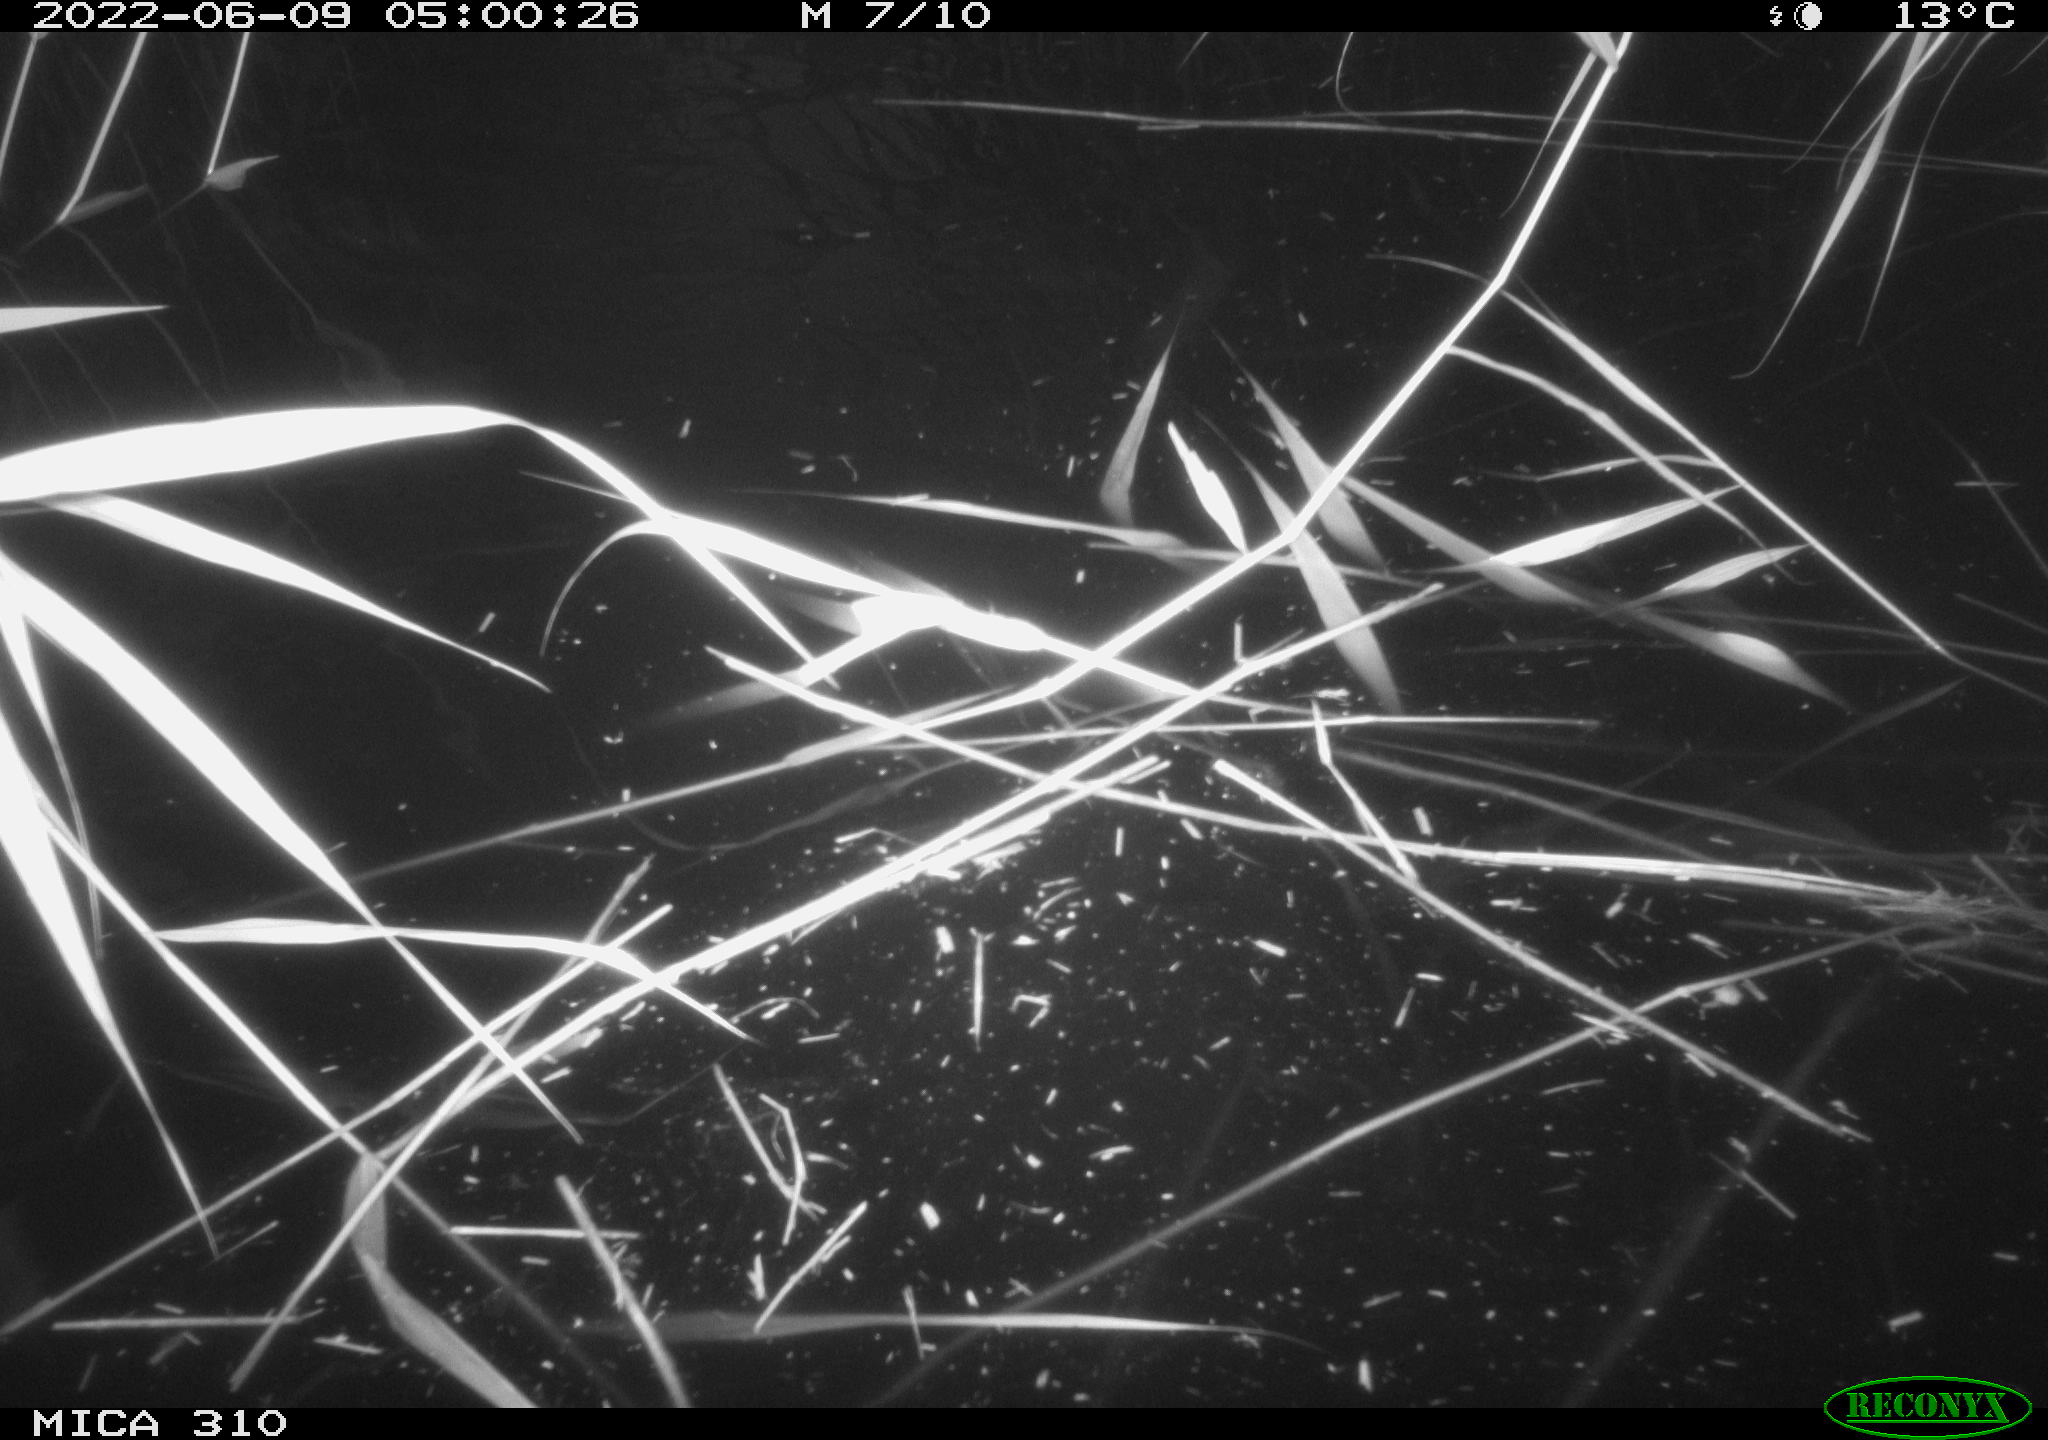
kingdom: Animalia
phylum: Chordata
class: Aves
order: Anseriformes
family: Anatidae
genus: Anas
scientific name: Anas platyrhynchos
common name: Mallard
